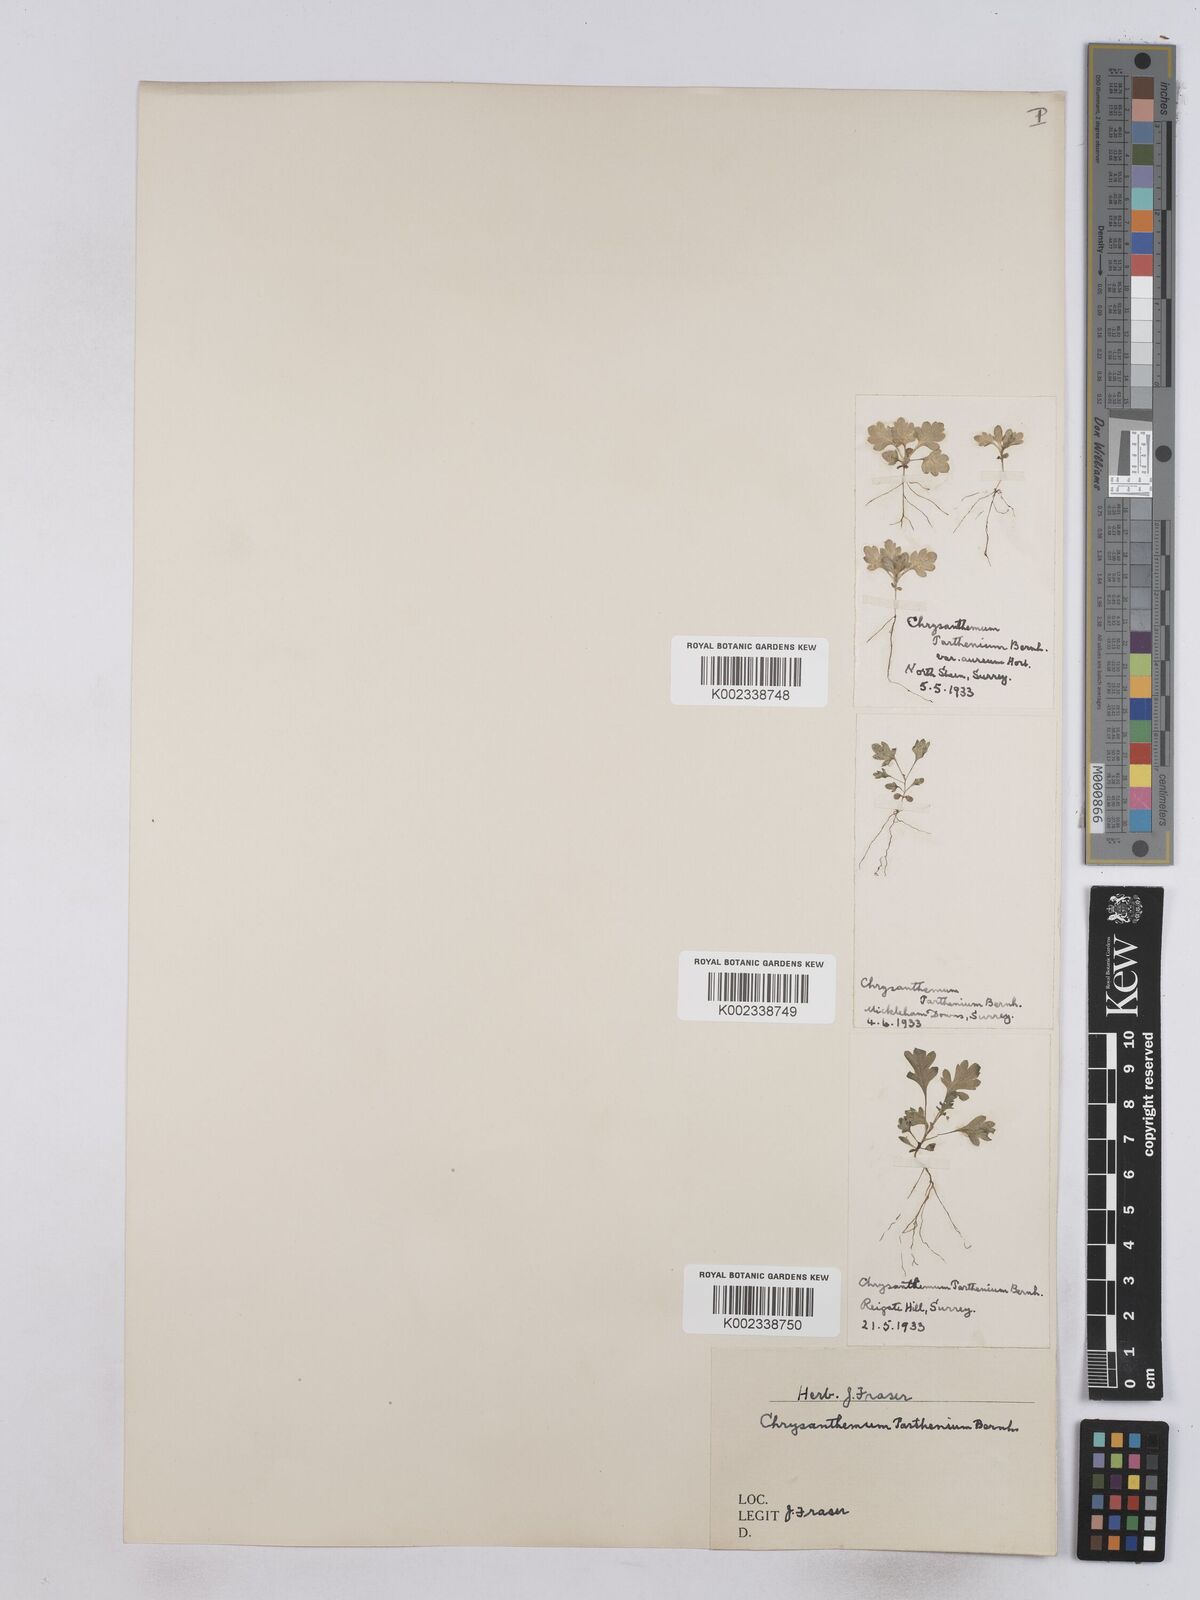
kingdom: Plantae
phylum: Tracheophyta
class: Magnoliopsida
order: Asterales
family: Asteraceae
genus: Tanacetum
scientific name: Tanacetum parthenium
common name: Feverfew
